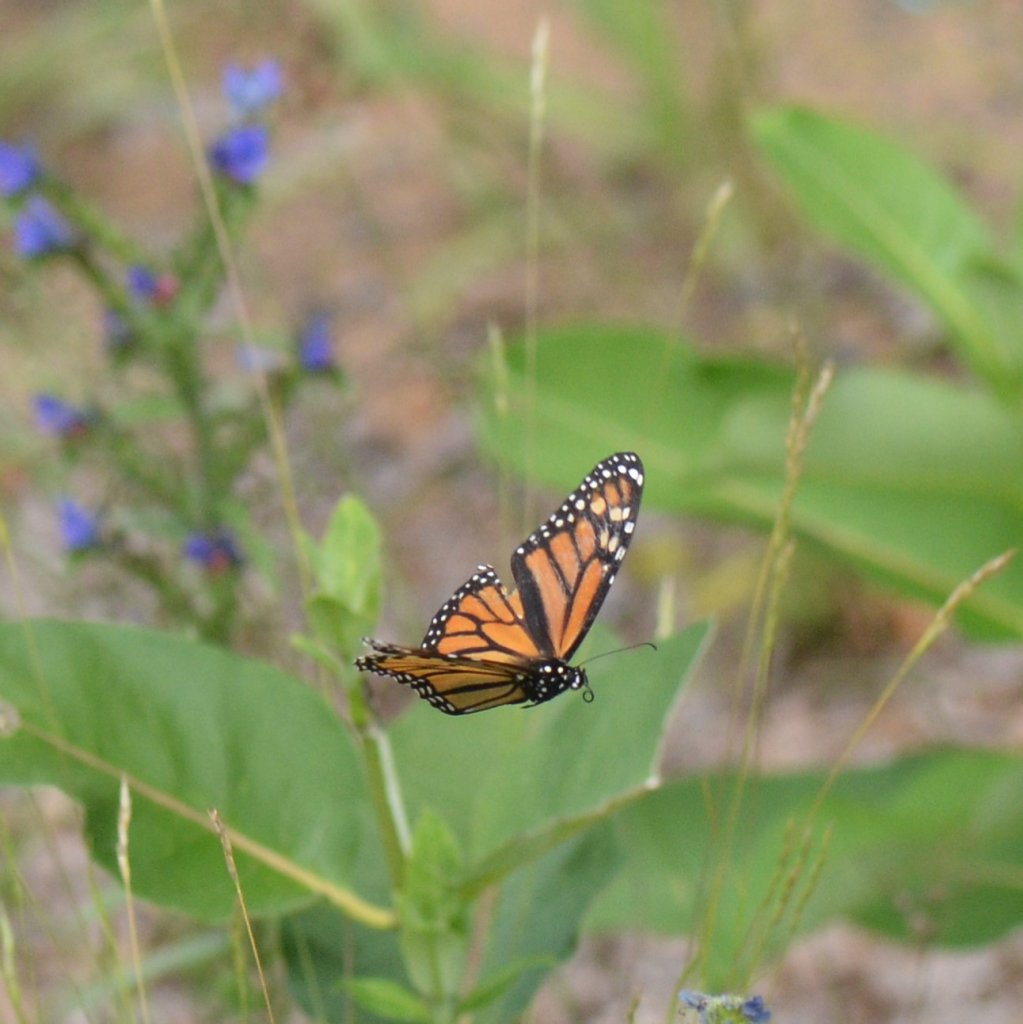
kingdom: Animalia
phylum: Arthropoda
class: Insecta
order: Lepidoptera
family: Nymphalidae
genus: Danaus
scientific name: Danaus plexippus
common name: Monarch
